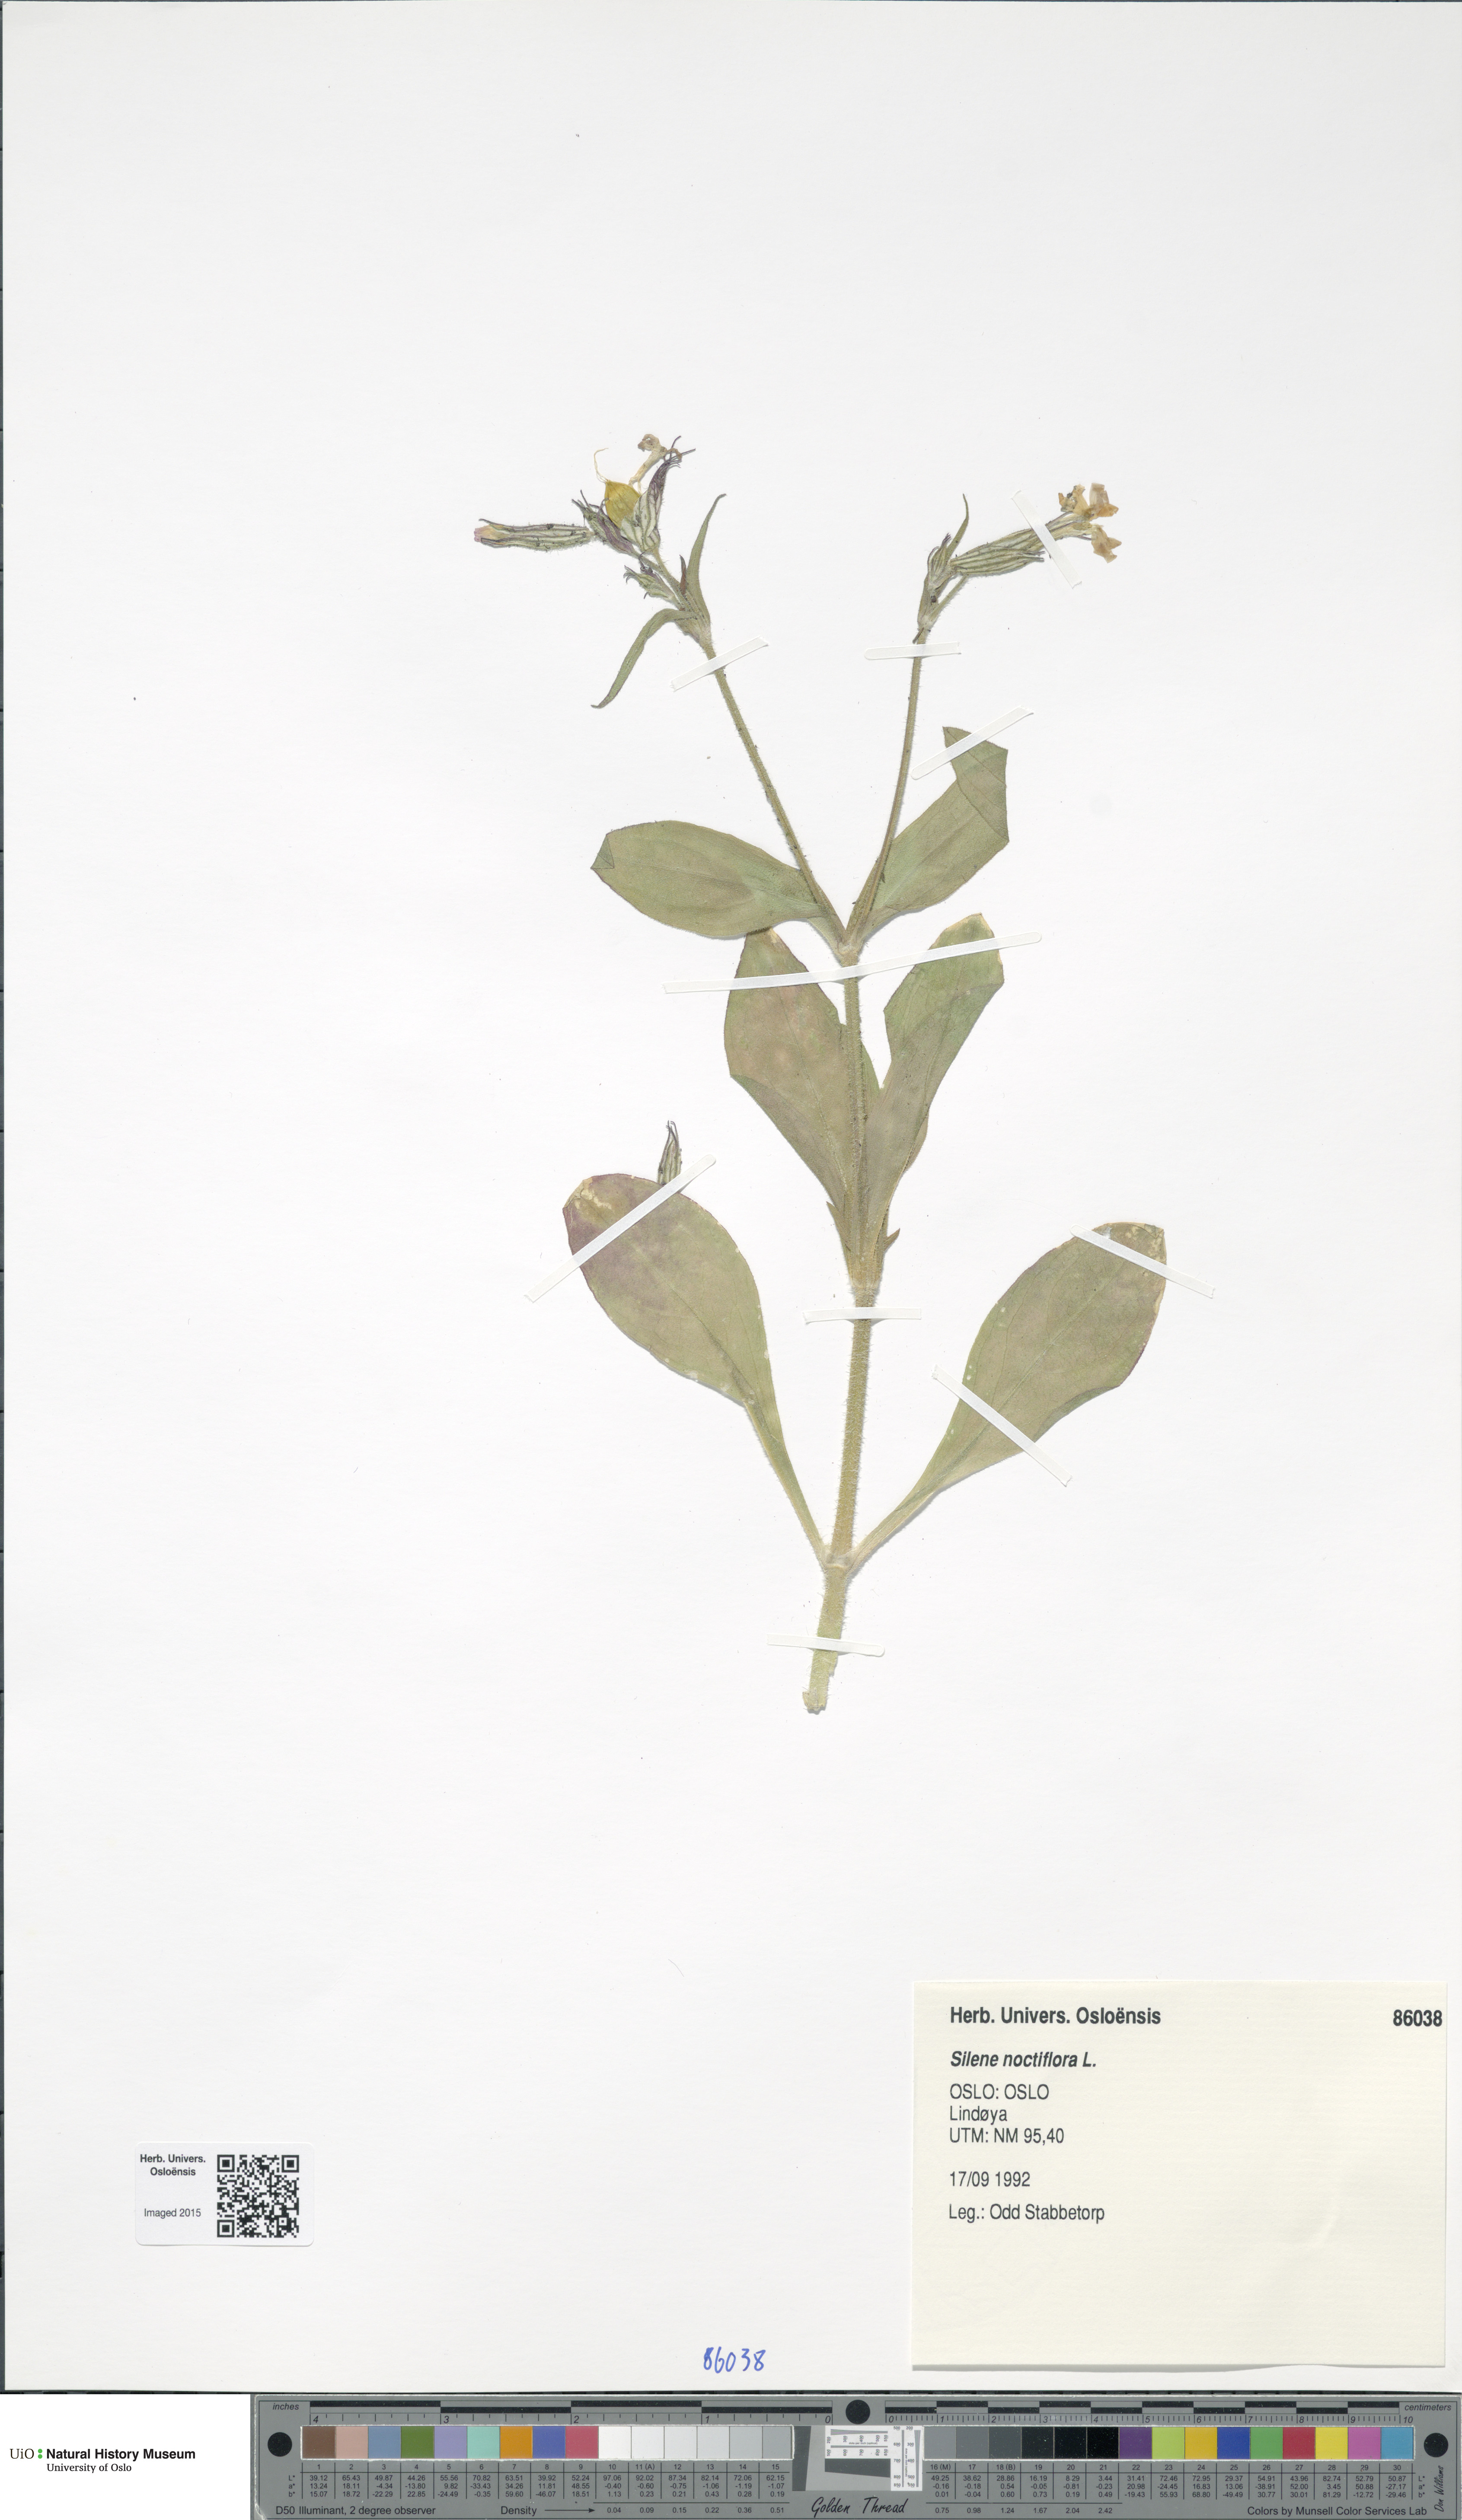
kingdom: Plantae
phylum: Tracheophyta
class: Magnoliopsida
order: Caryophyllales
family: Caryophyllaceae
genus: Silene
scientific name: Silene noctiflora
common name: Night-flowering catchfly
